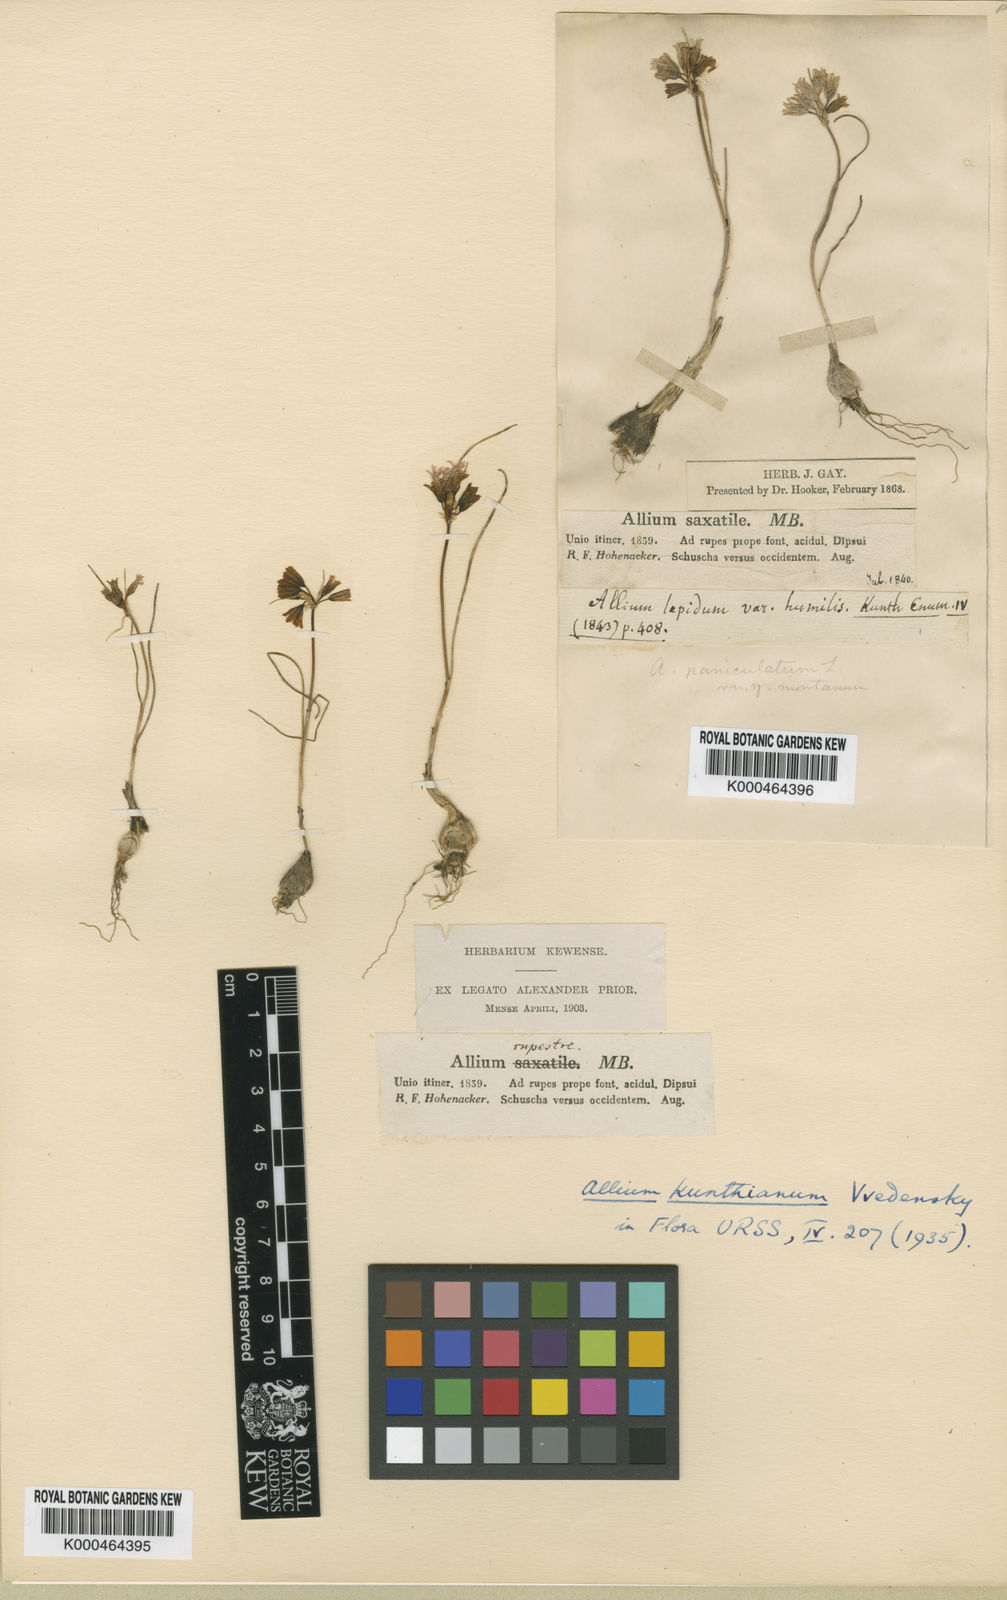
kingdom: Plantae
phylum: Tracheophyta
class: Liliopsida
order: Asparagales
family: Amaryllidaceae
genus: Allium
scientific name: Allium kunthianum
